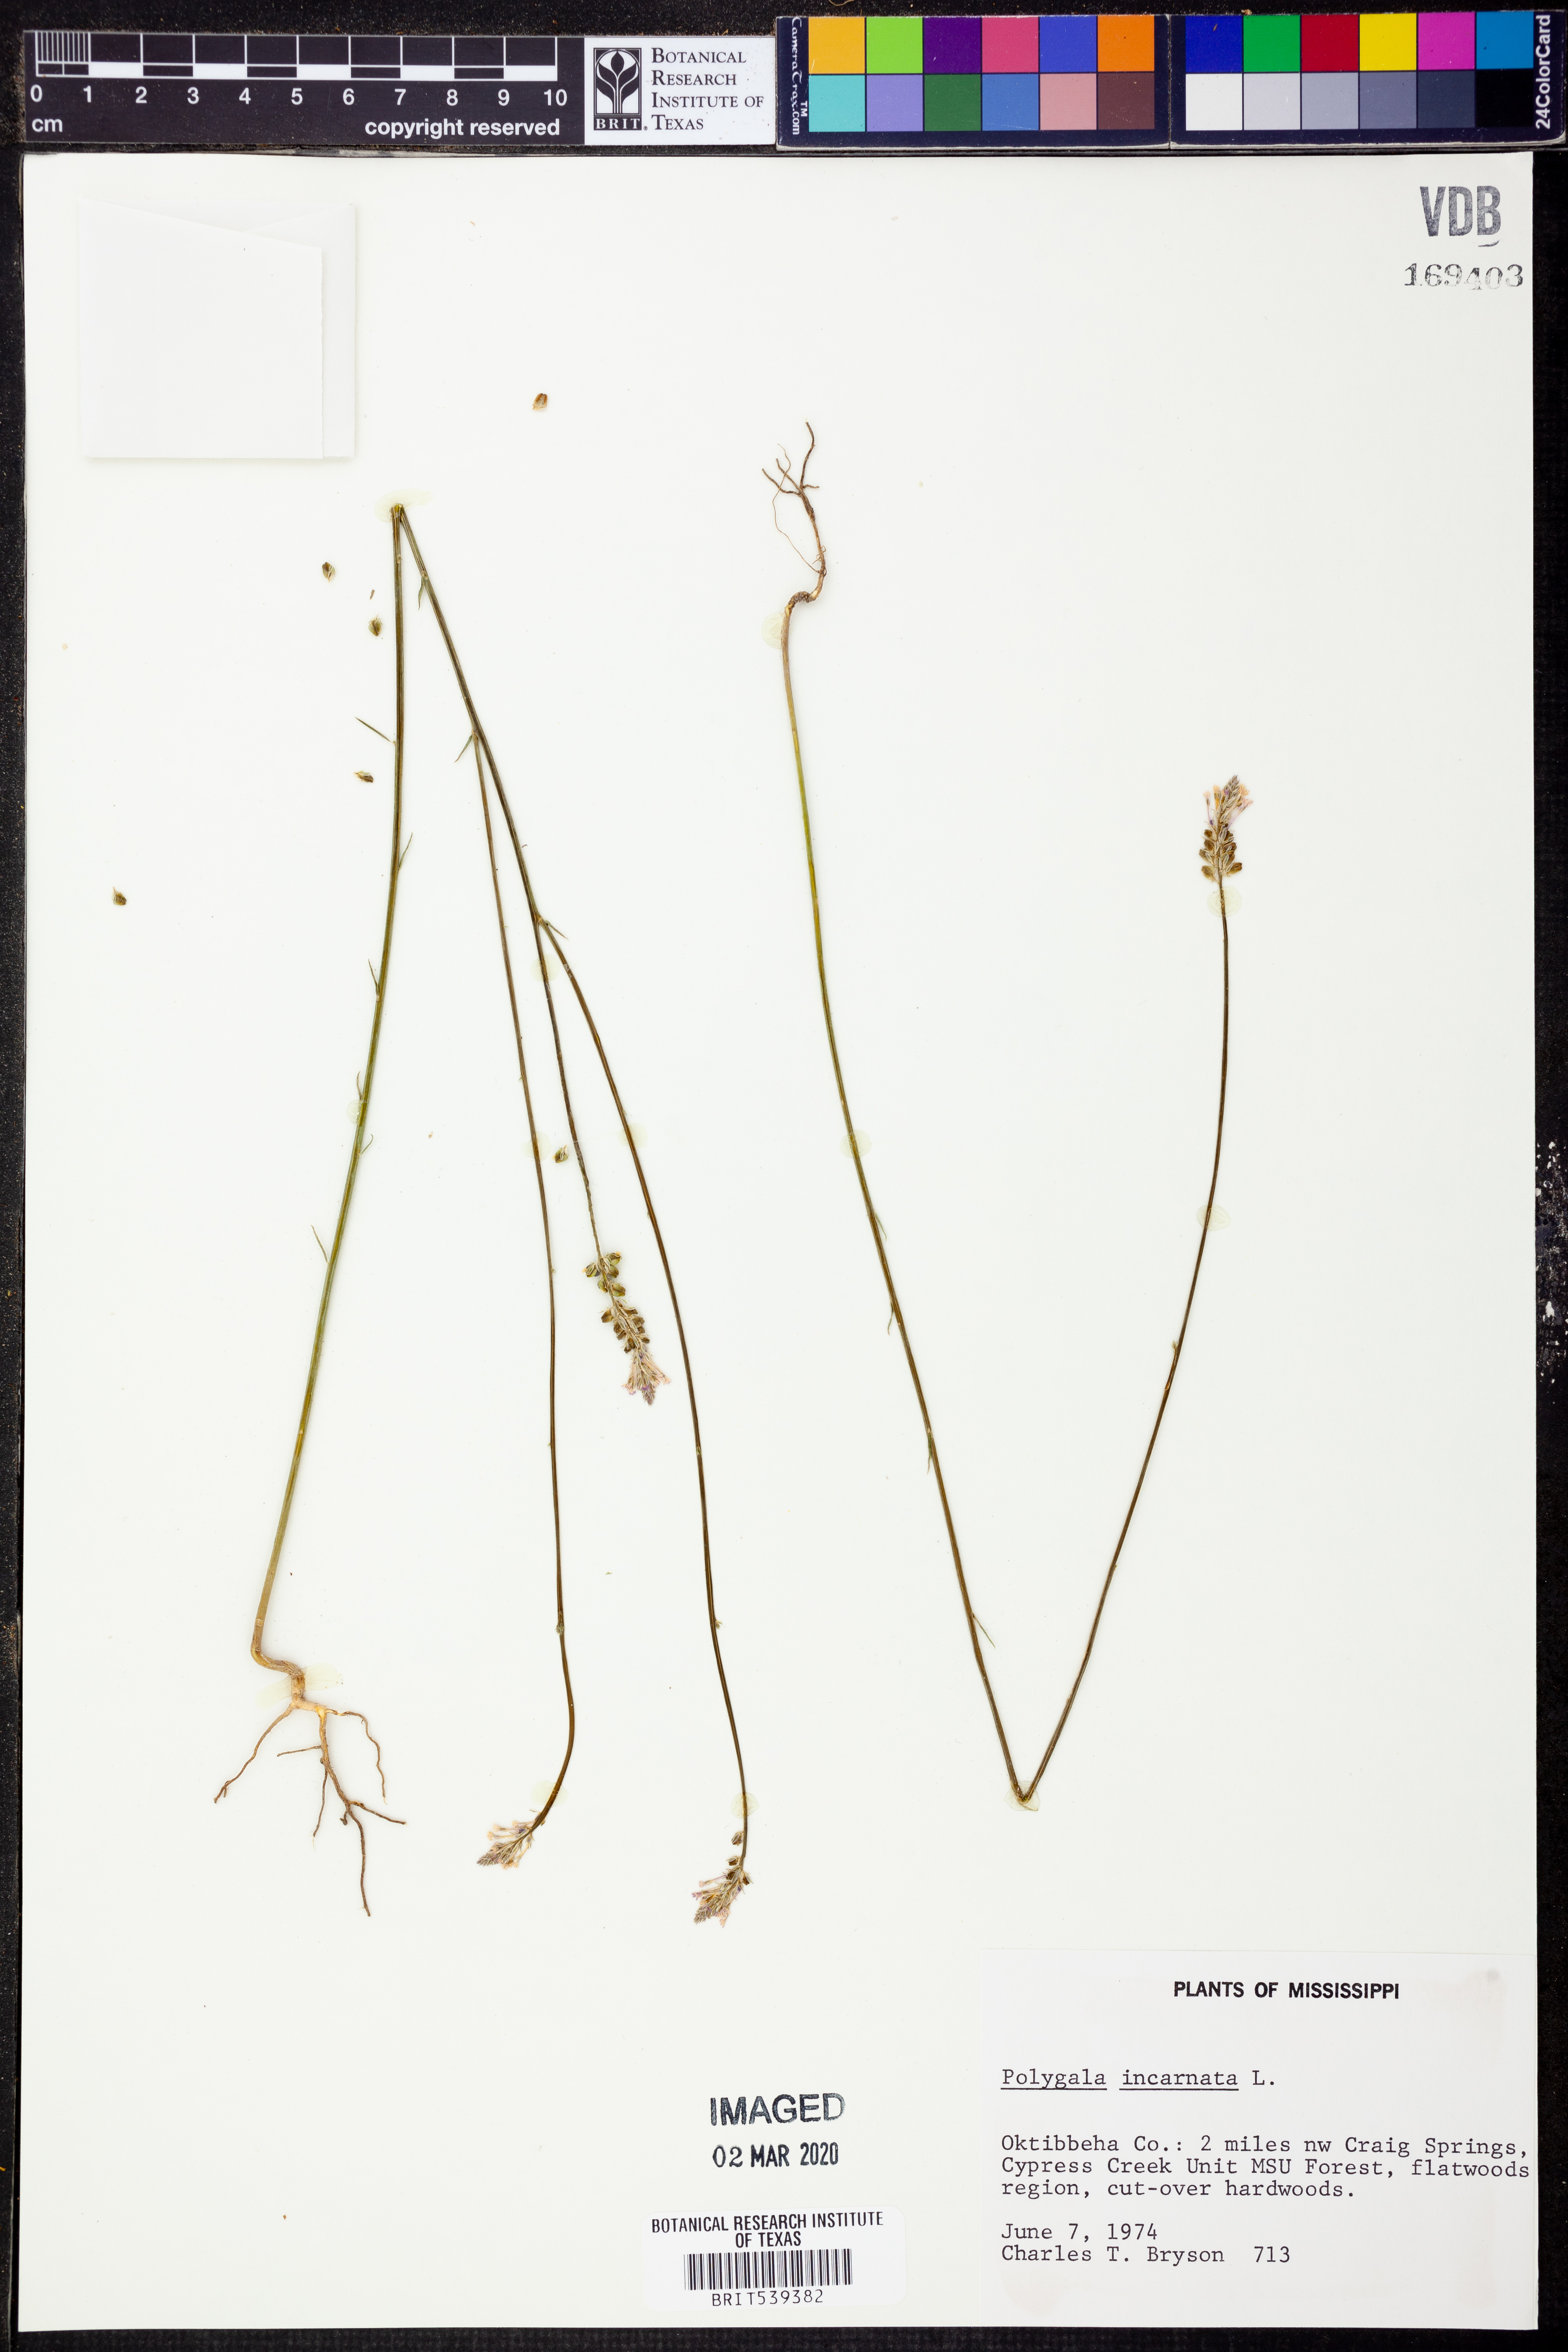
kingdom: Plantae
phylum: Tracheophyta
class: Magnoliopsida
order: Fabales
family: Polygalaceae
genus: Polygala
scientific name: Polygala incarnata
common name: Pink milkwort
